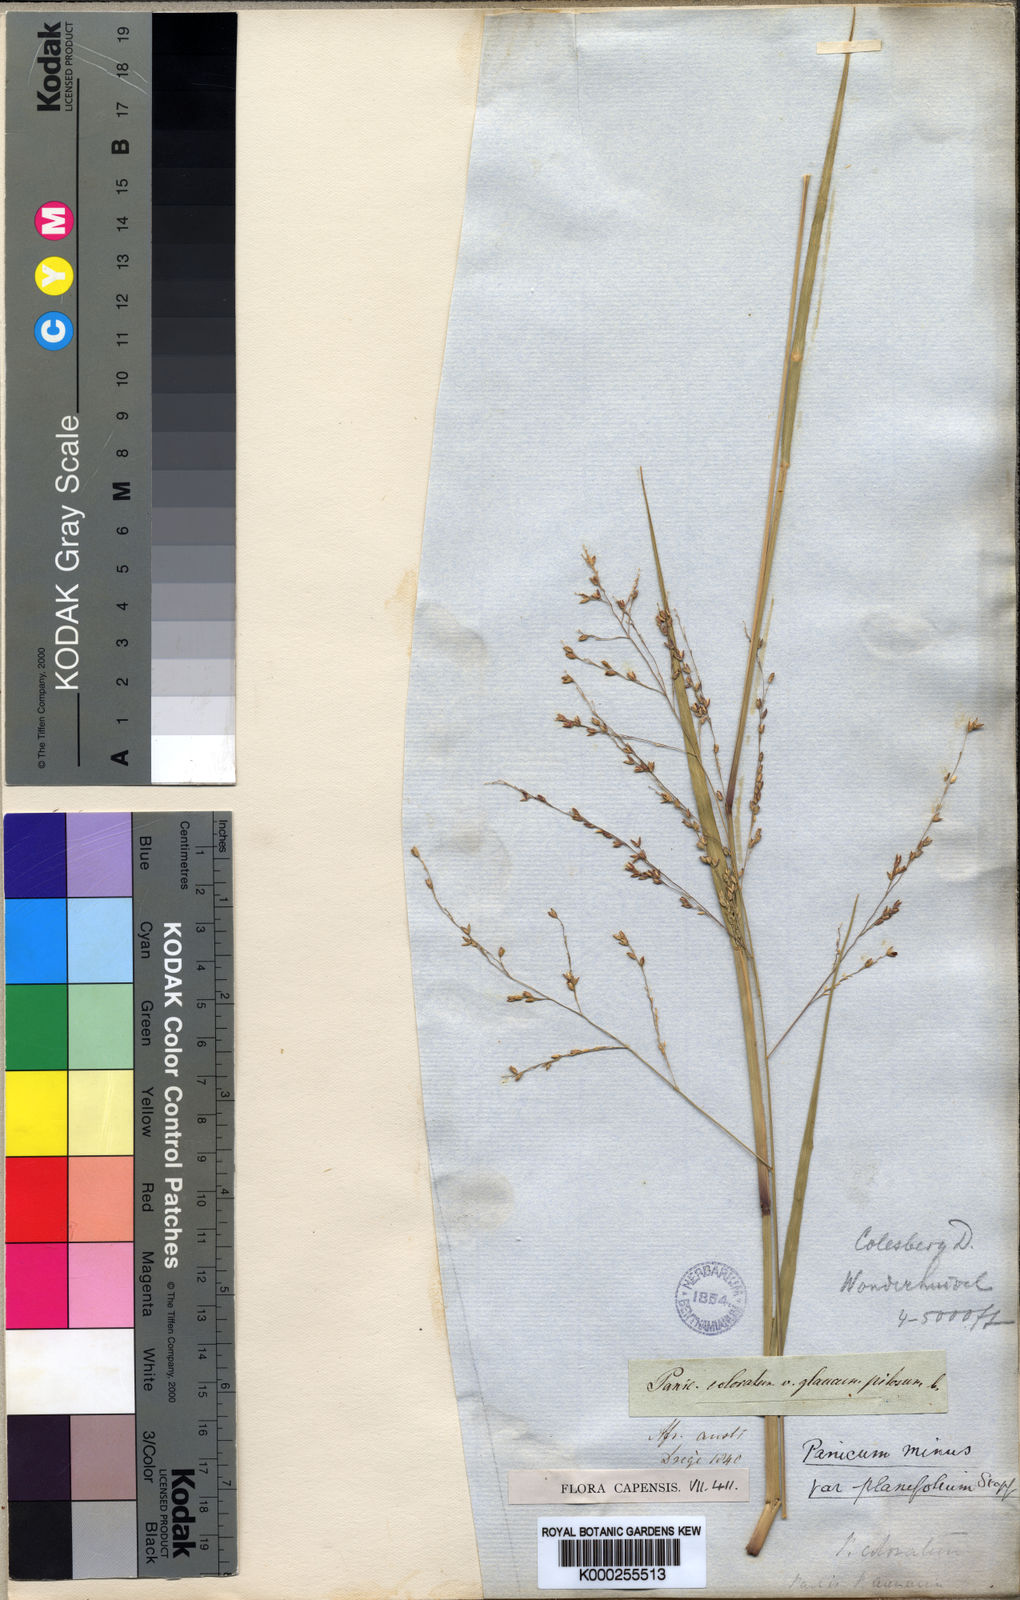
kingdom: Plantae
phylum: Tracheophyta
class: Liliopsida
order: Poales
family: Poaceae
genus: Panicum
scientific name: Panicum stapfianum
